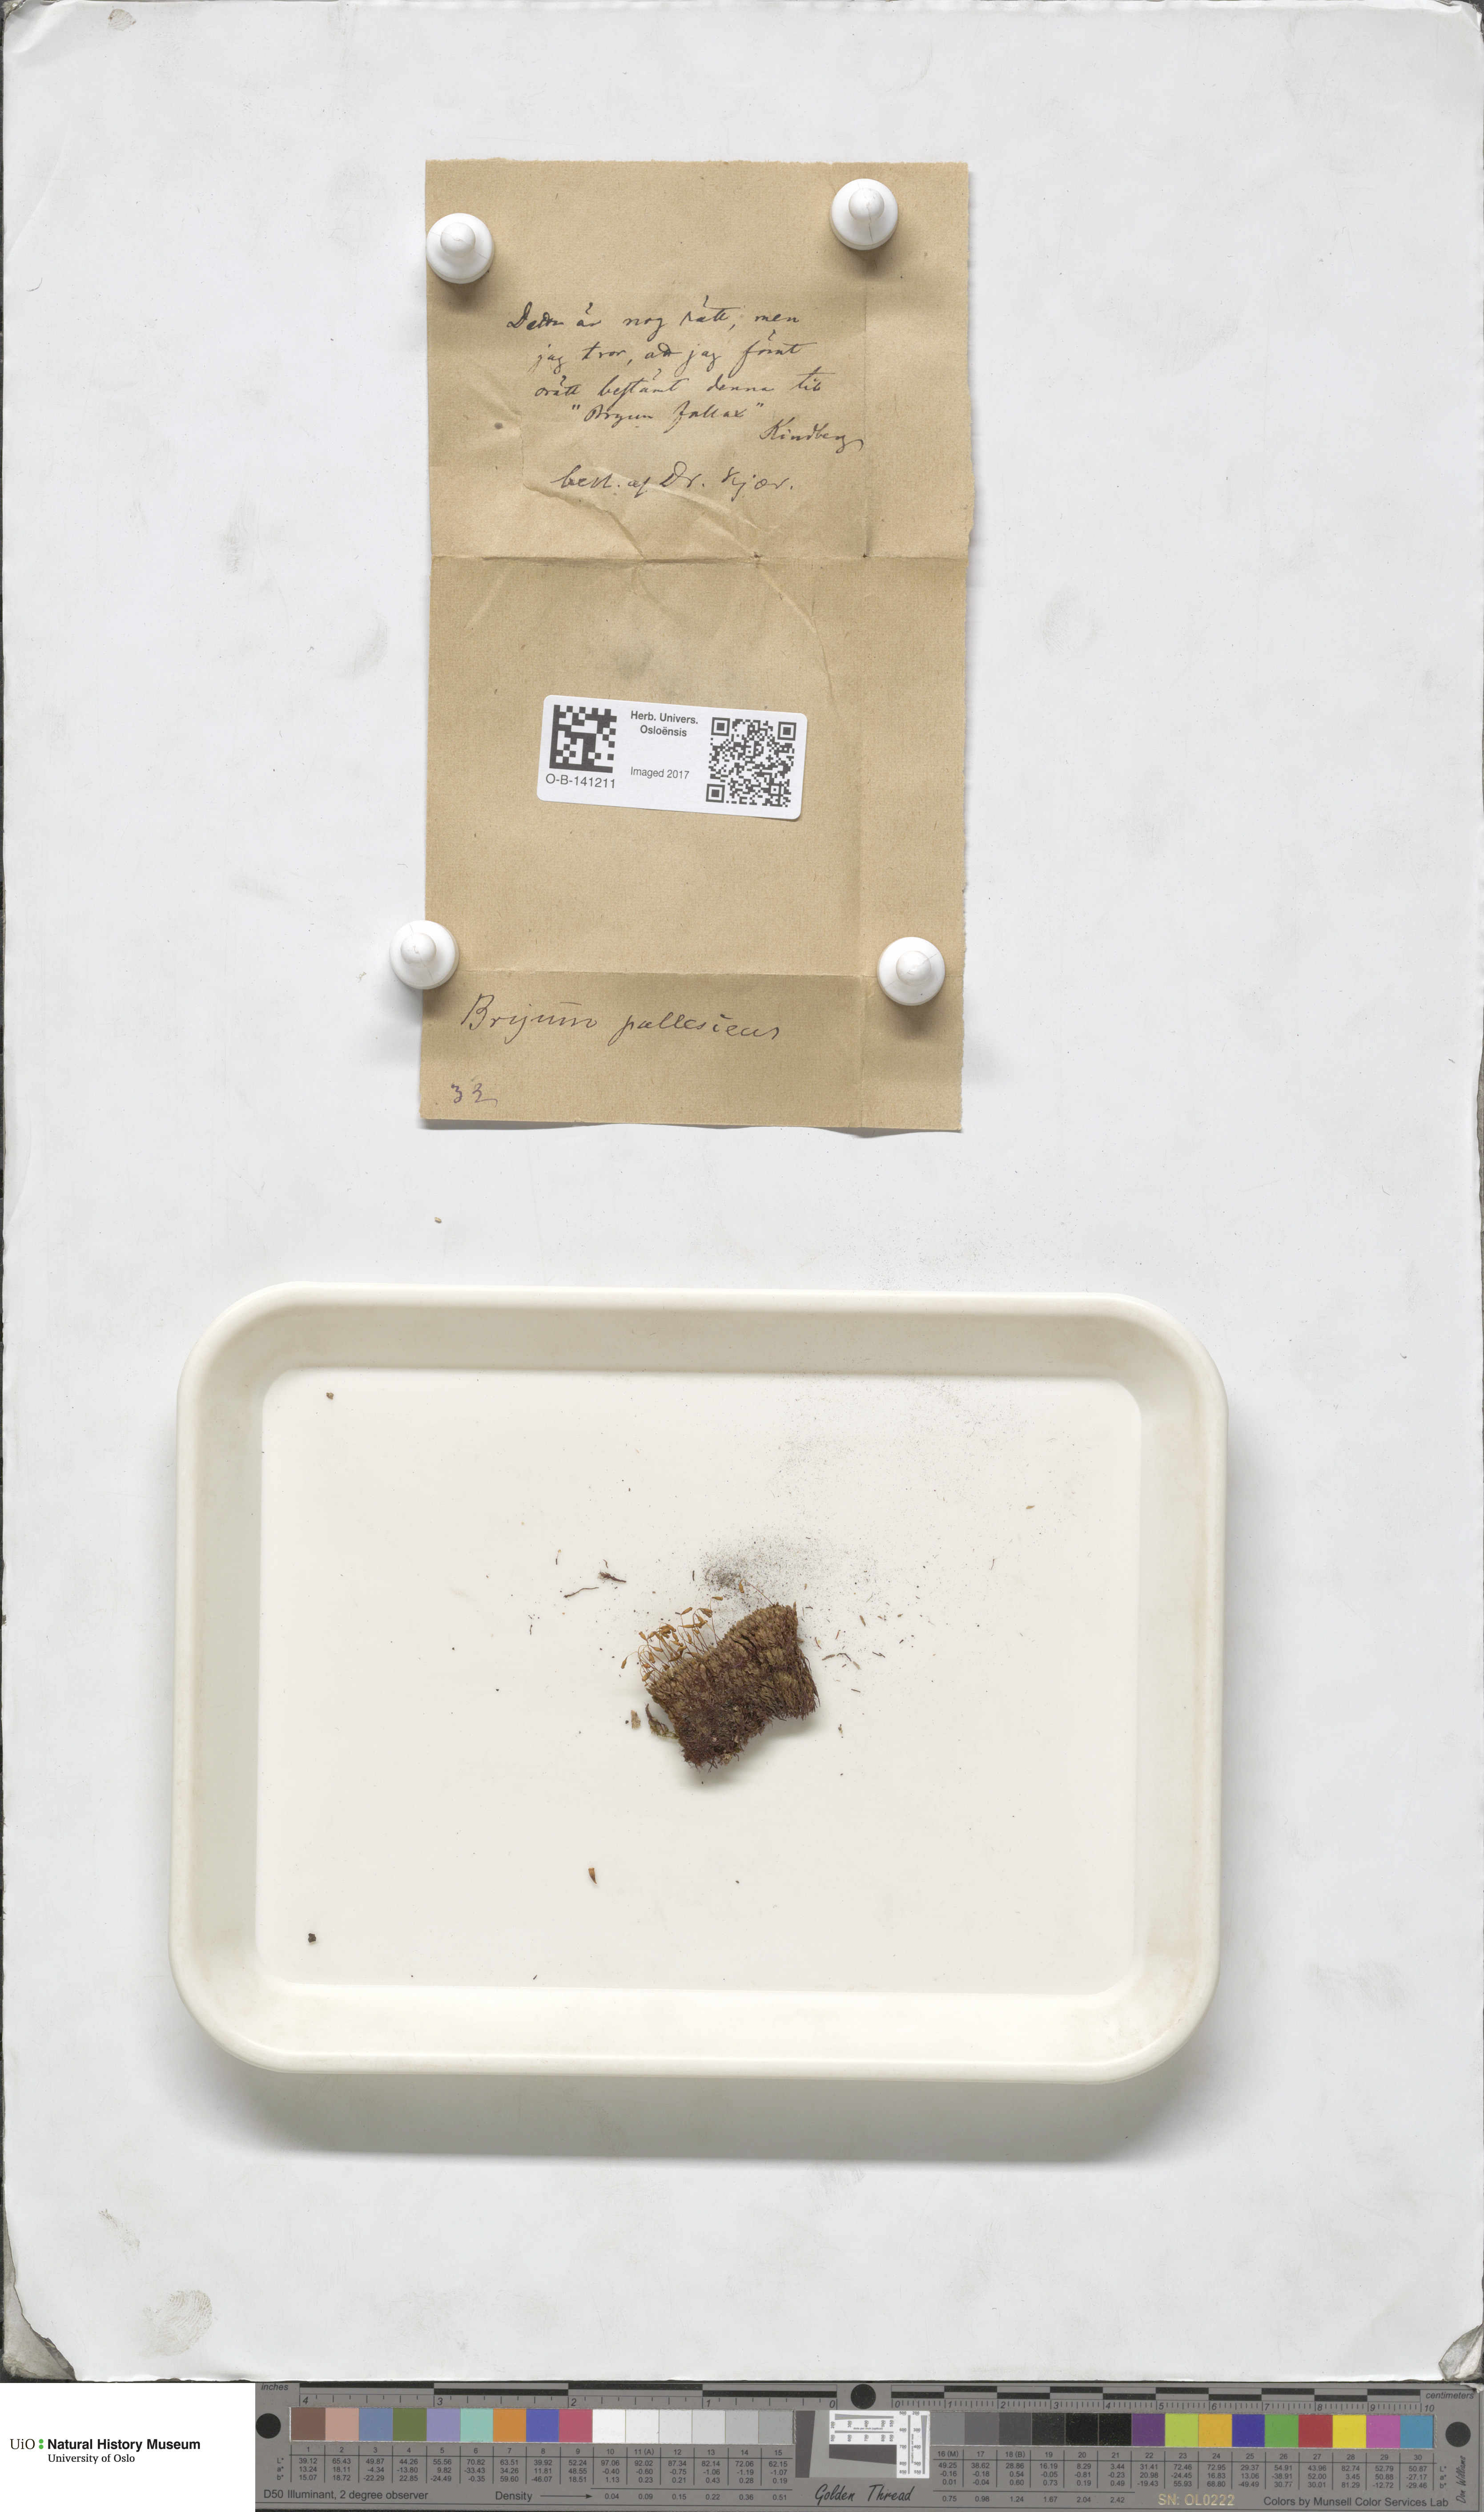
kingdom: Plantae
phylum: Bryophyta
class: Bryopsida
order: Bryales
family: Bryaceae
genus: Ptychostomum
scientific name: Ptychostomum pallens
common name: Pale thread-moss
